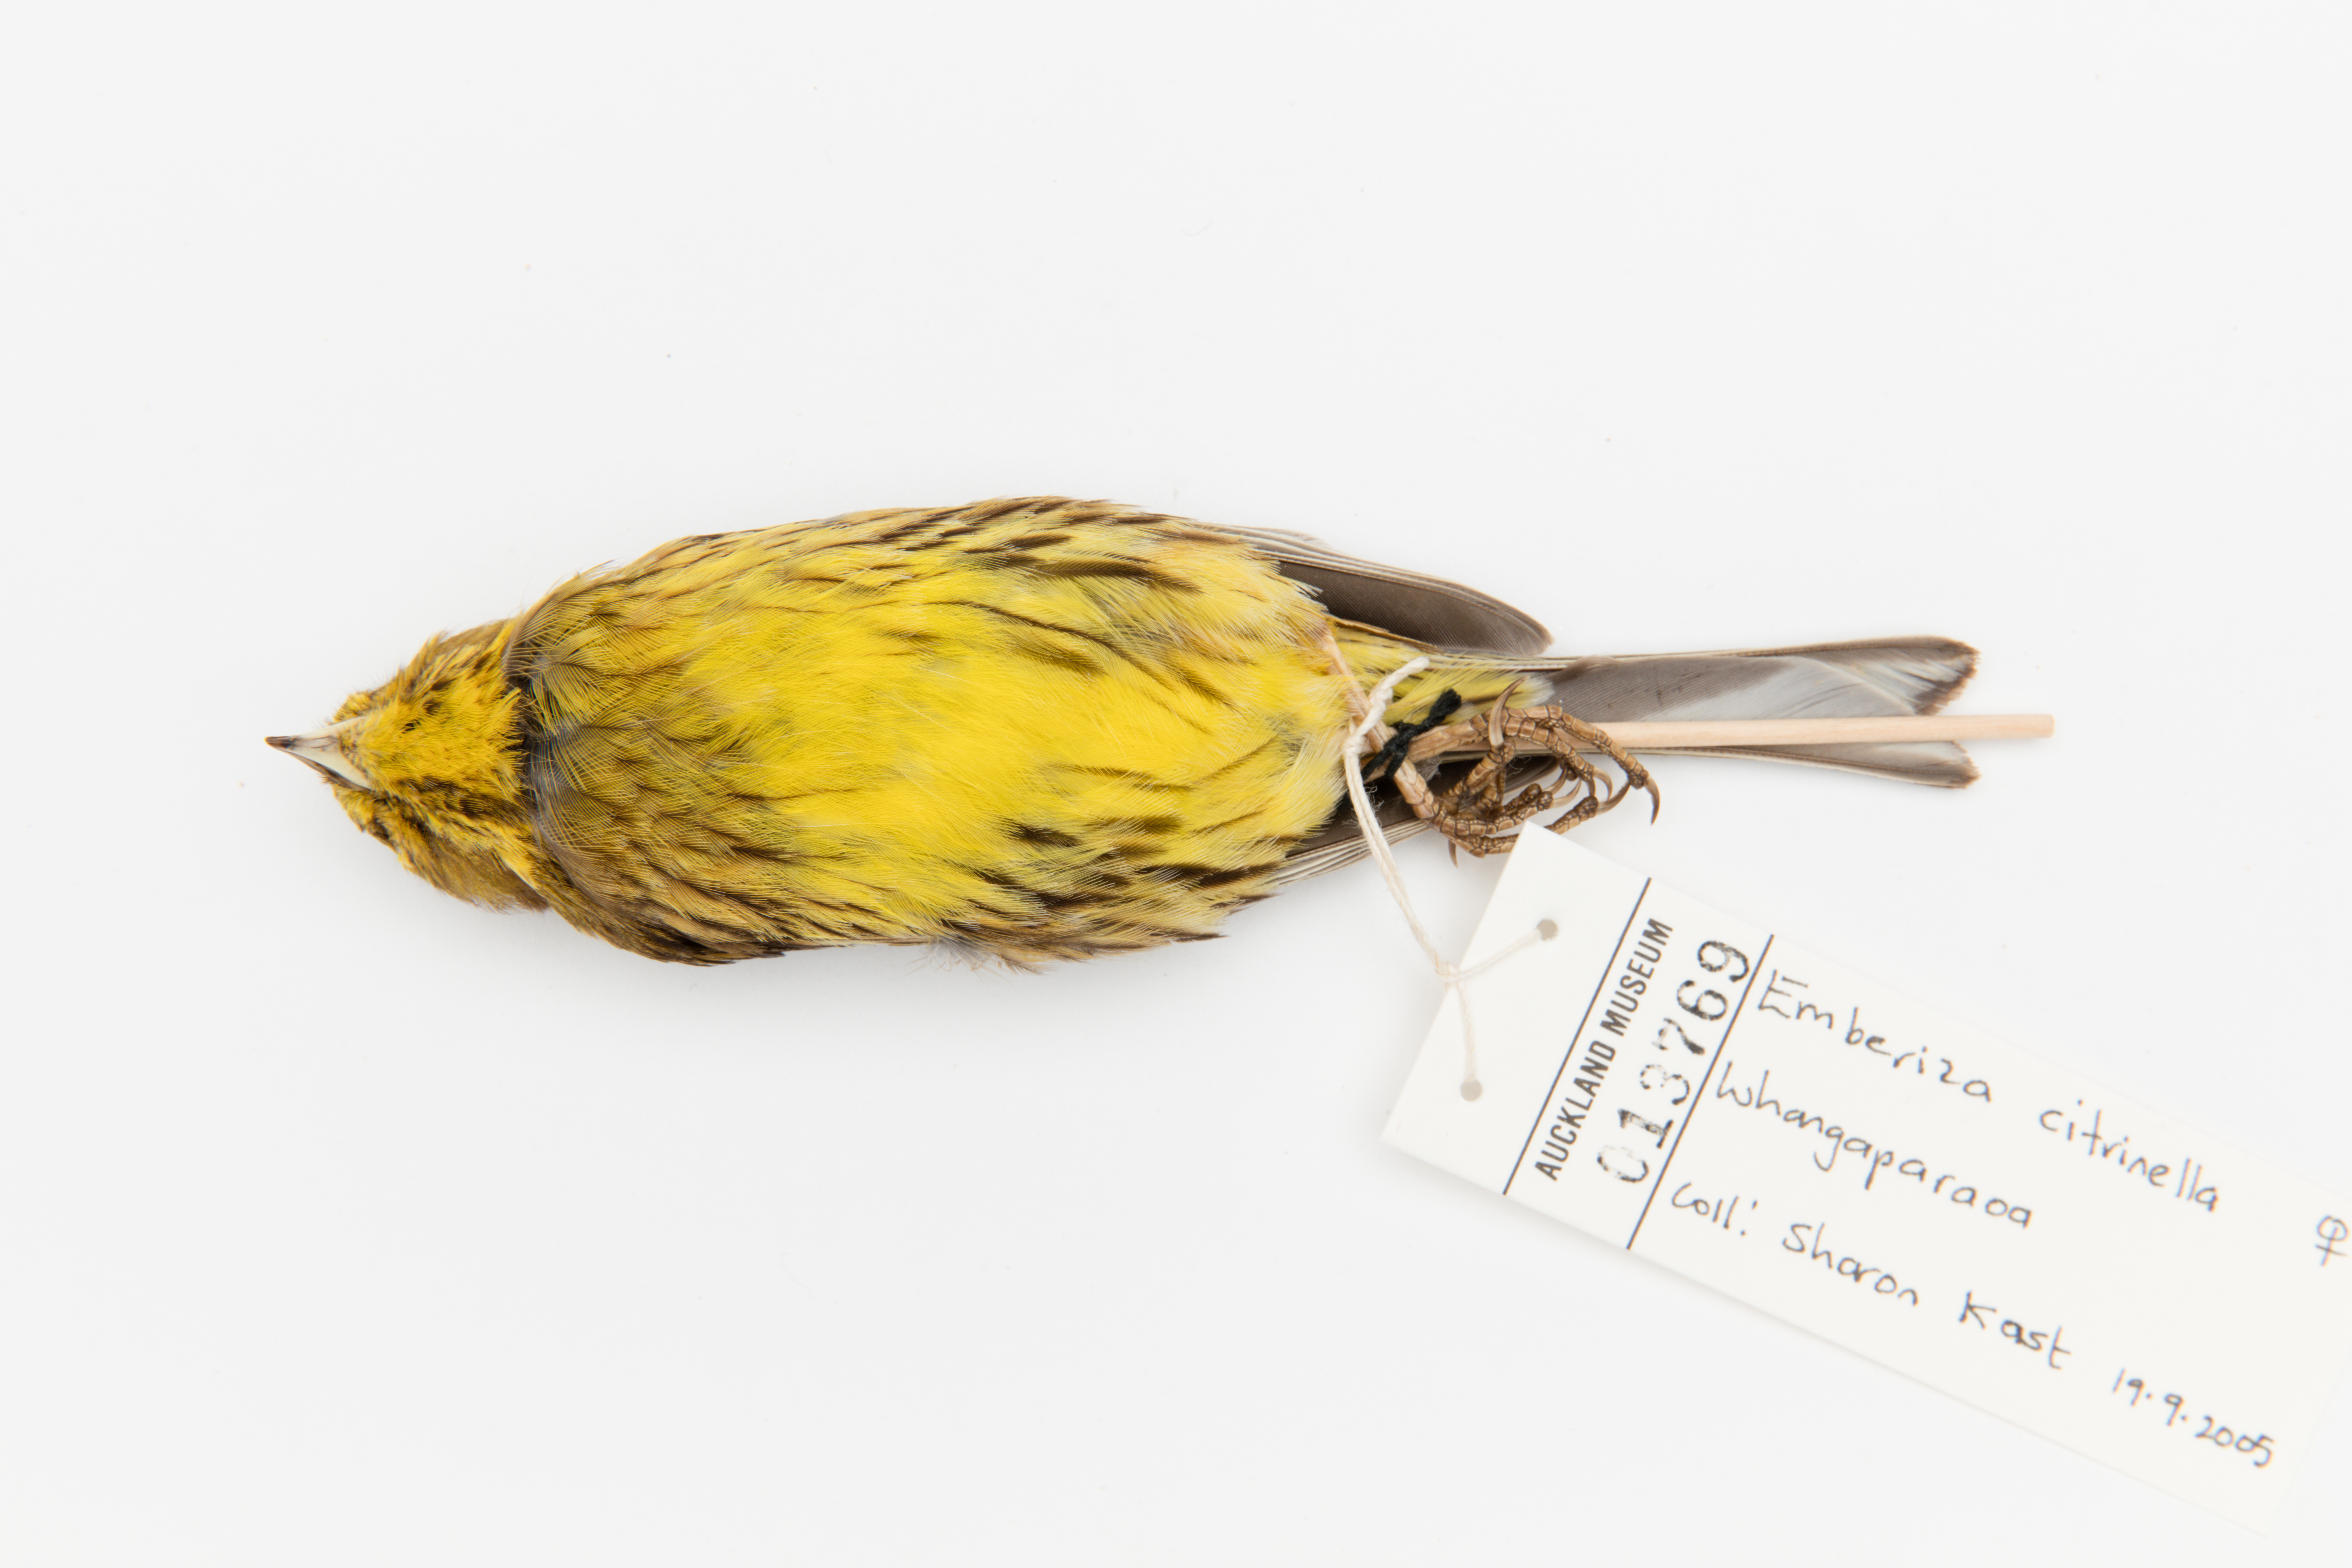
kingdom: Animalia
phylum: Chordata
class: Aves
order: Passeriformes
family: Emberizidae
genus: Emberiza
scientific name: Emberiza citrinella
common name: Yellowhammer
